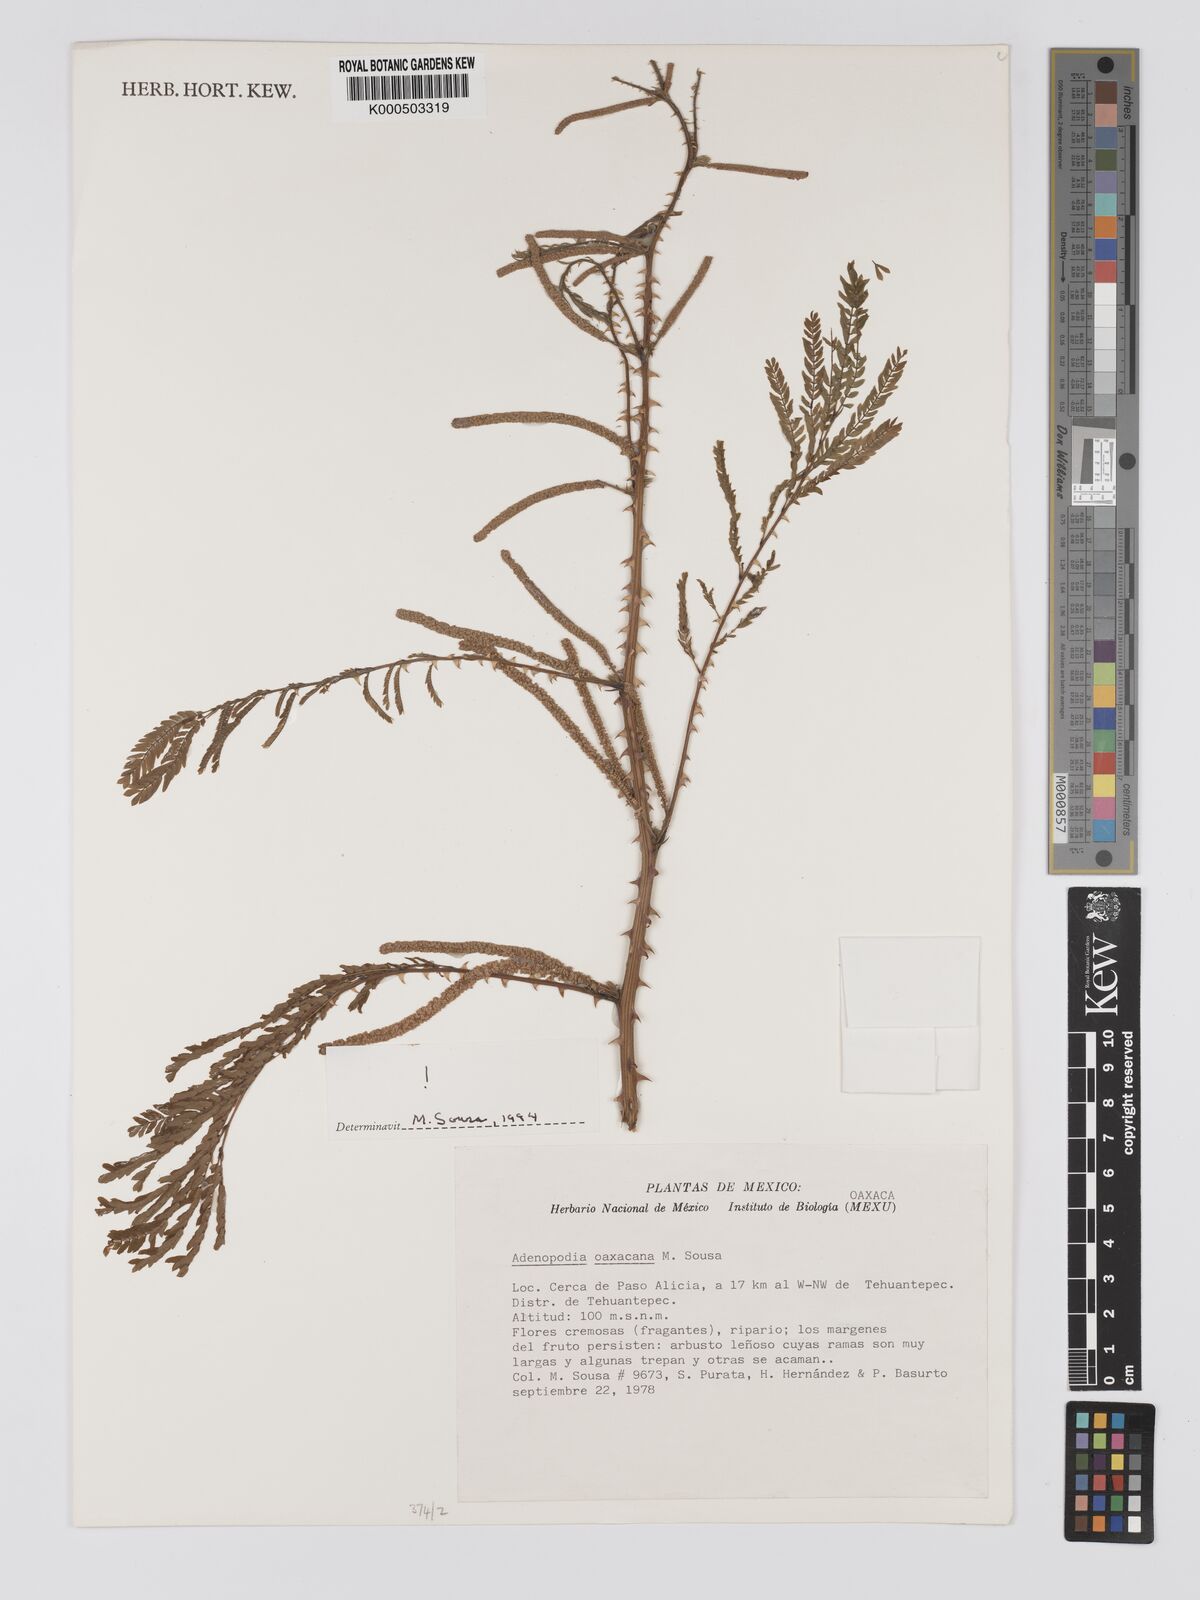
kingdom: Plantae
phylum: Tracheophyta
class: Magnoliopsida
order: Fabales
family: Fabaceae
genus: Adenopodia
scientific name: Adenopodia oaxacana
